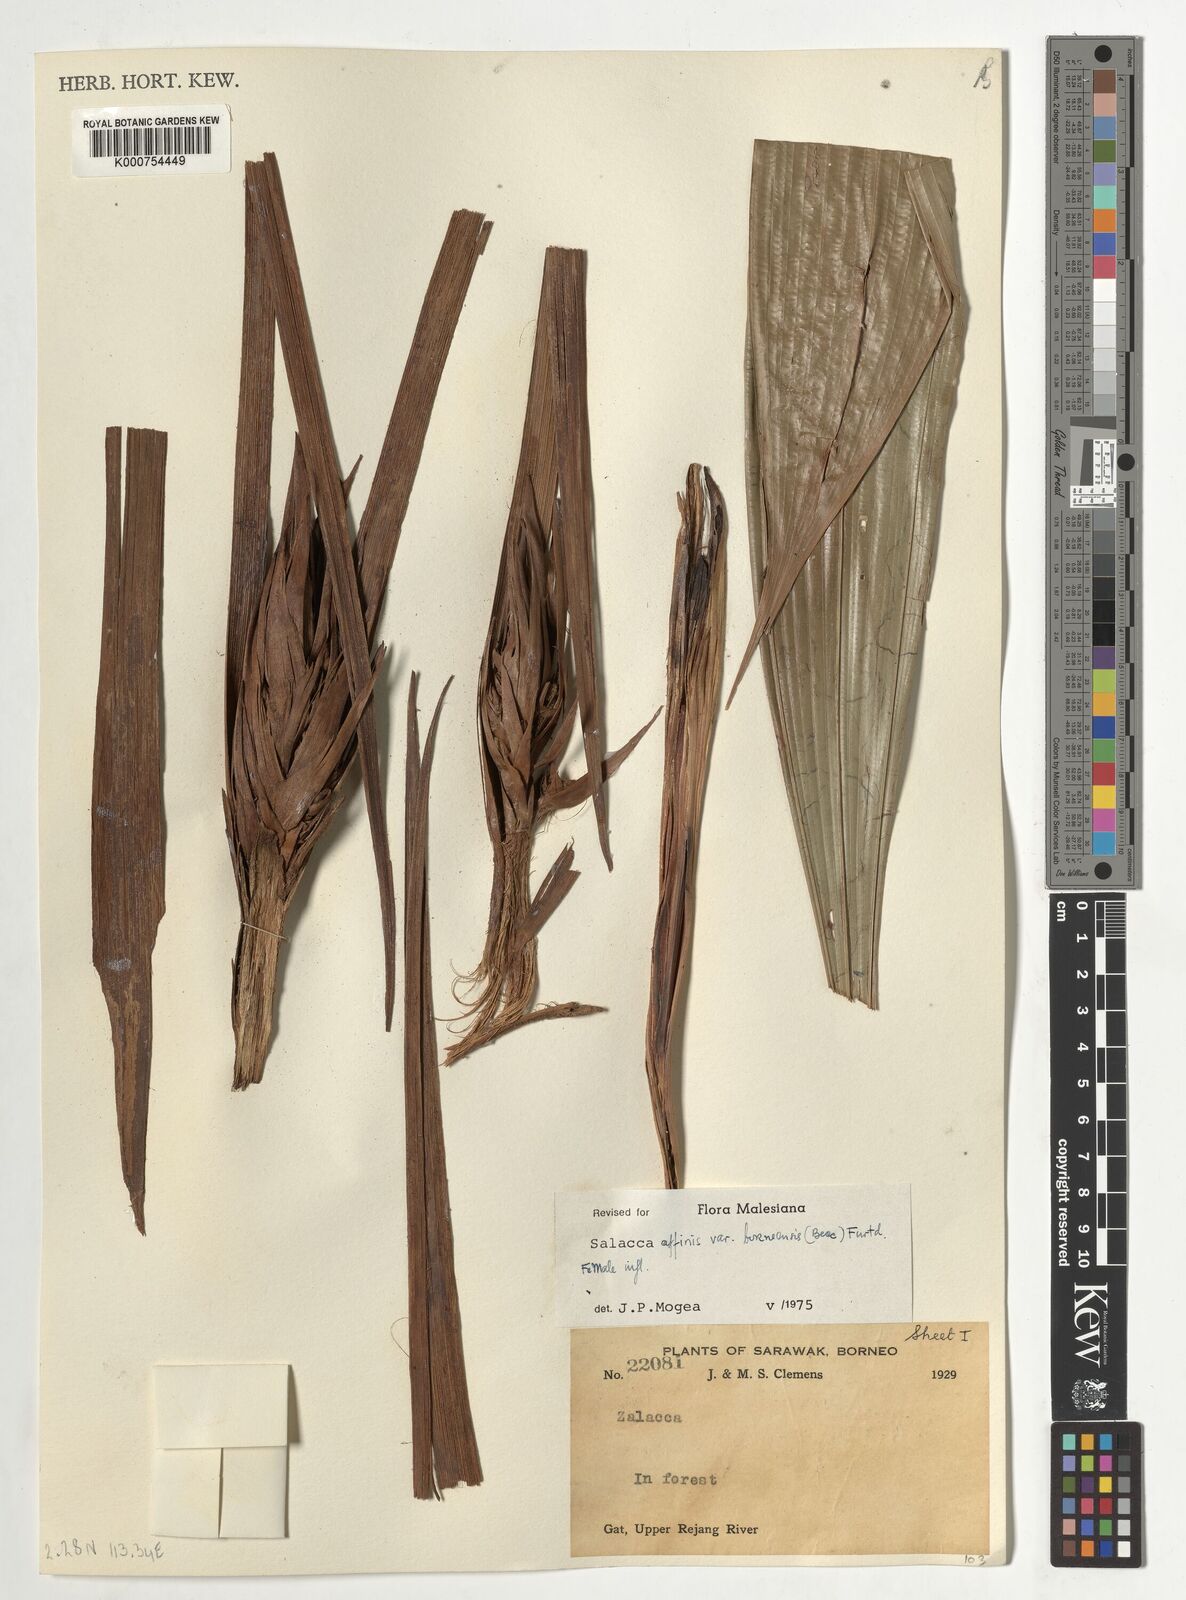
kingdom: Plantae
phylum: Tracheophyta
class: Liliopsida
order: Arecales
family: Arecaceae
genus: Salacca
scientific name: Salacca affinis
